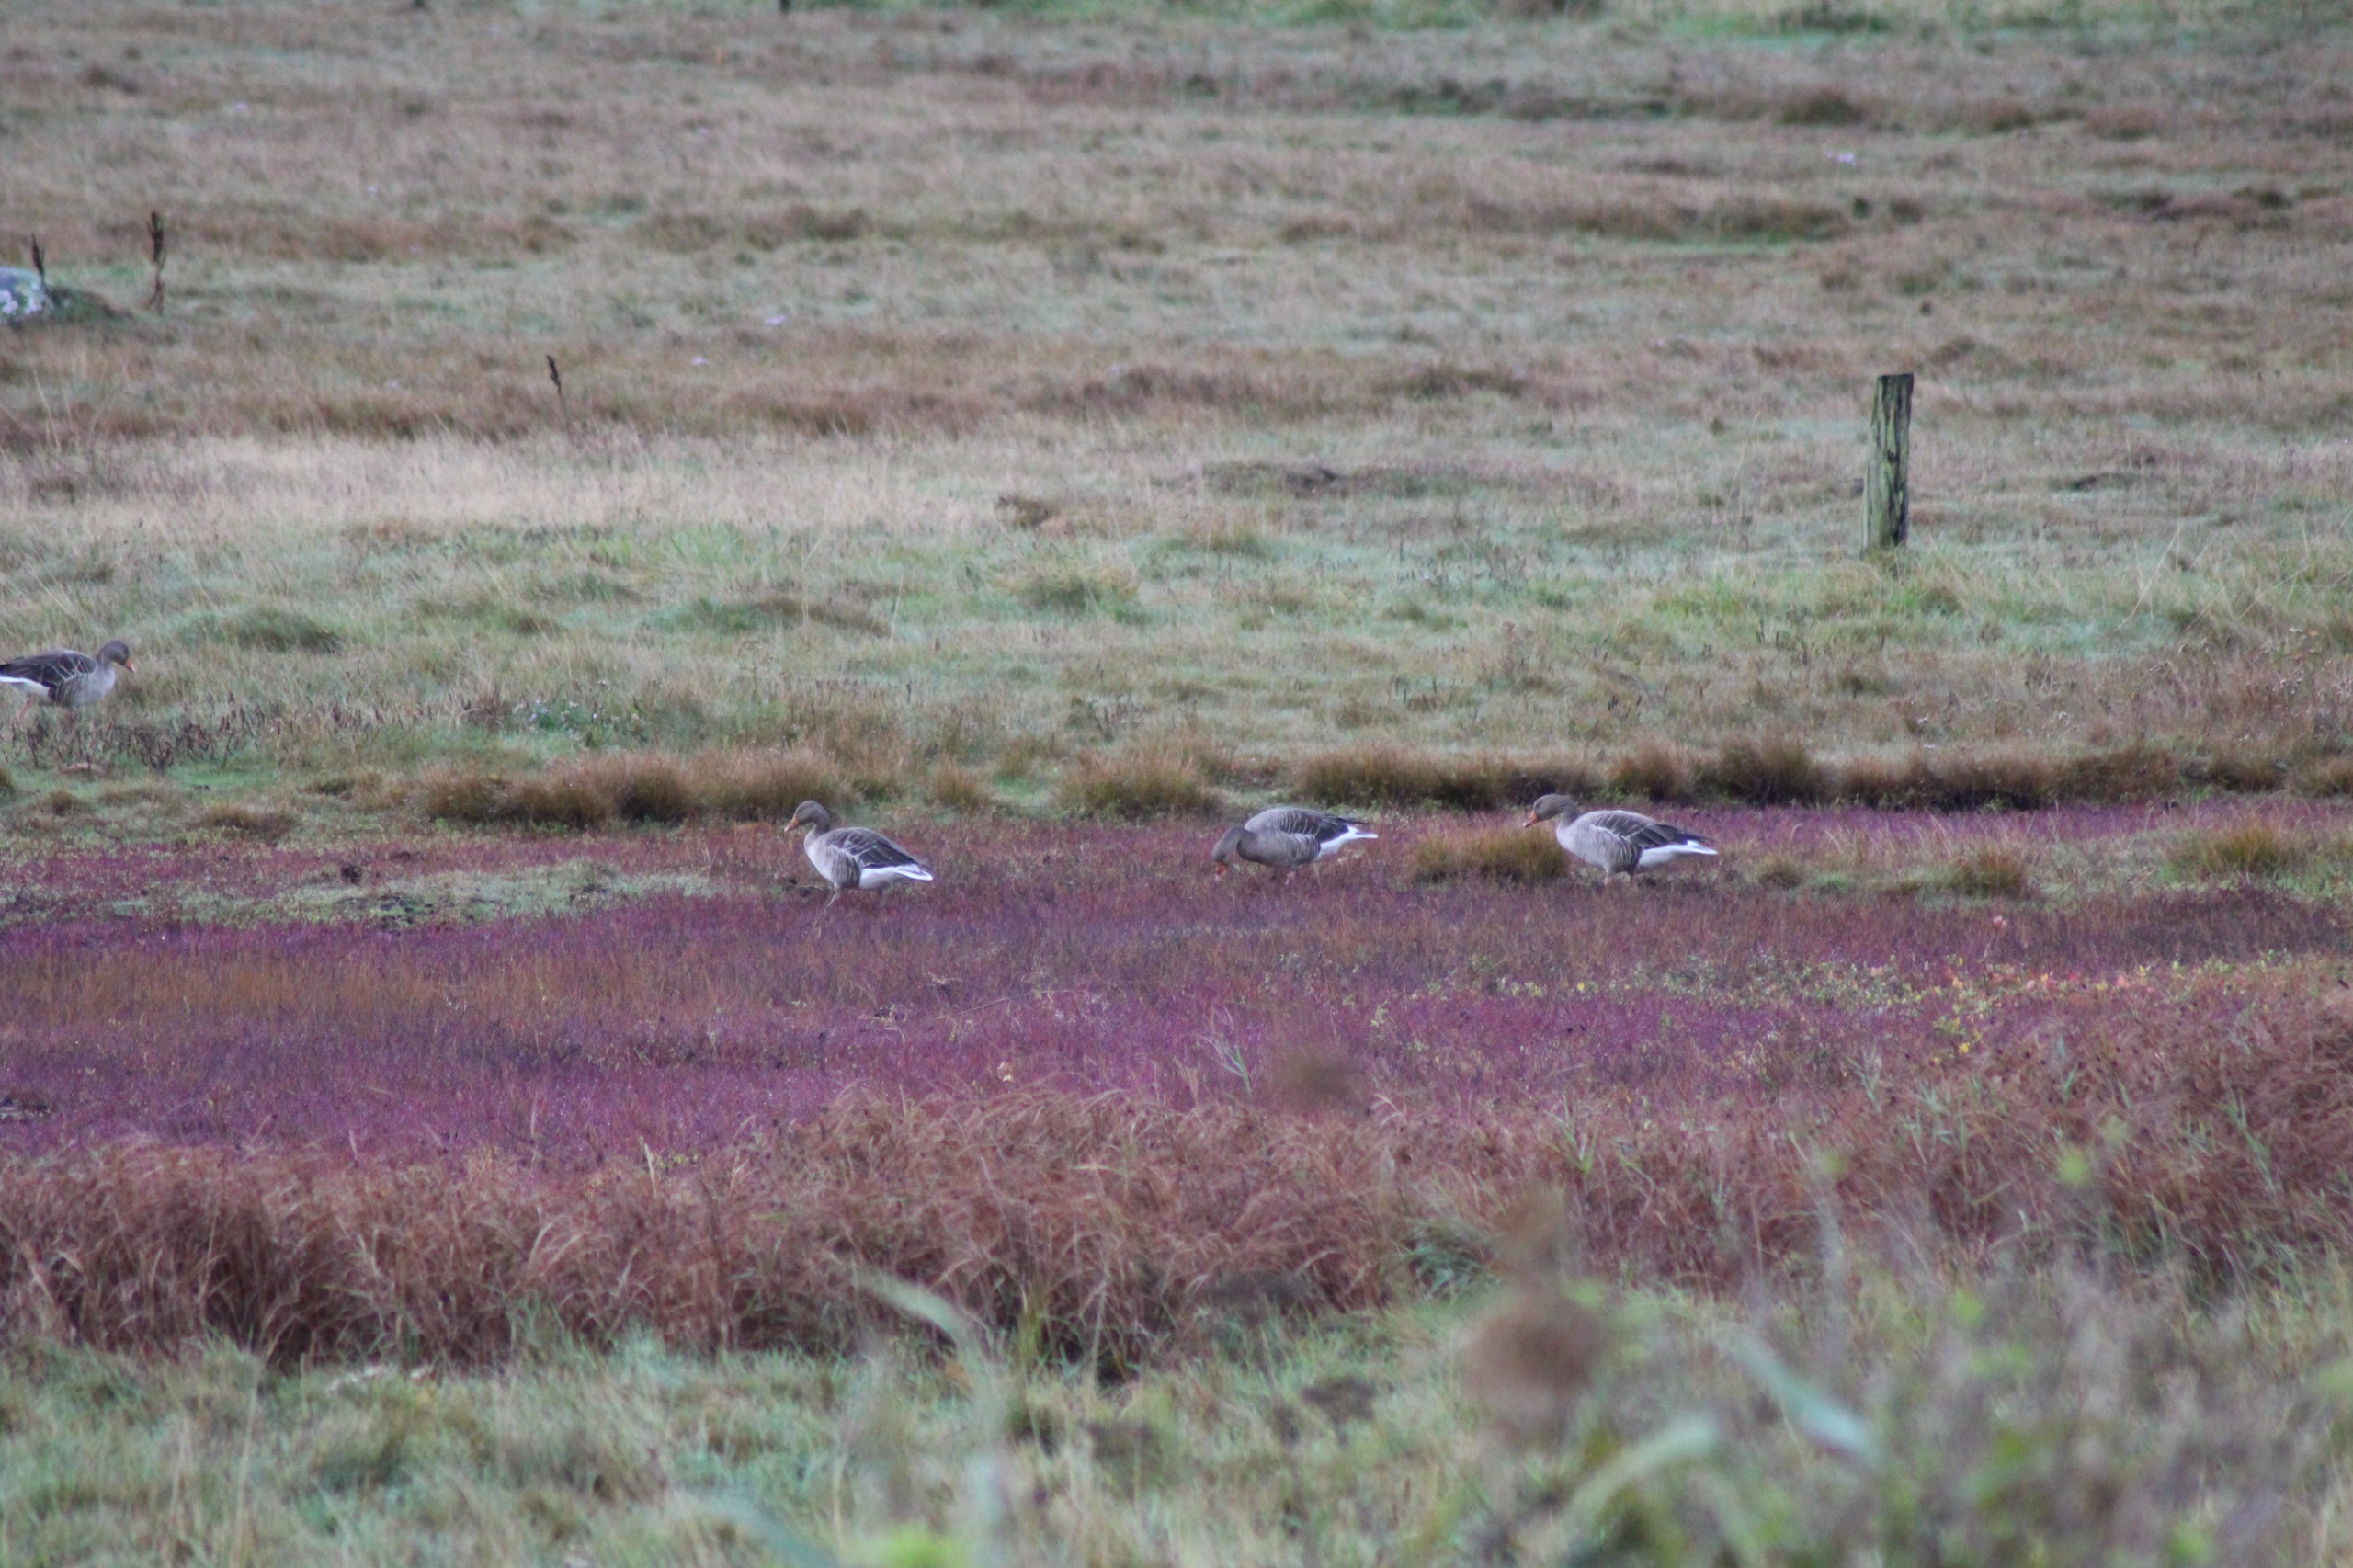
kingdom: Animalia
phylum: Chordata
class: Aves
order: Anseriformes
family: Anatidae
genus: Anser
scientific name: Anser anser
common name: Grågås
